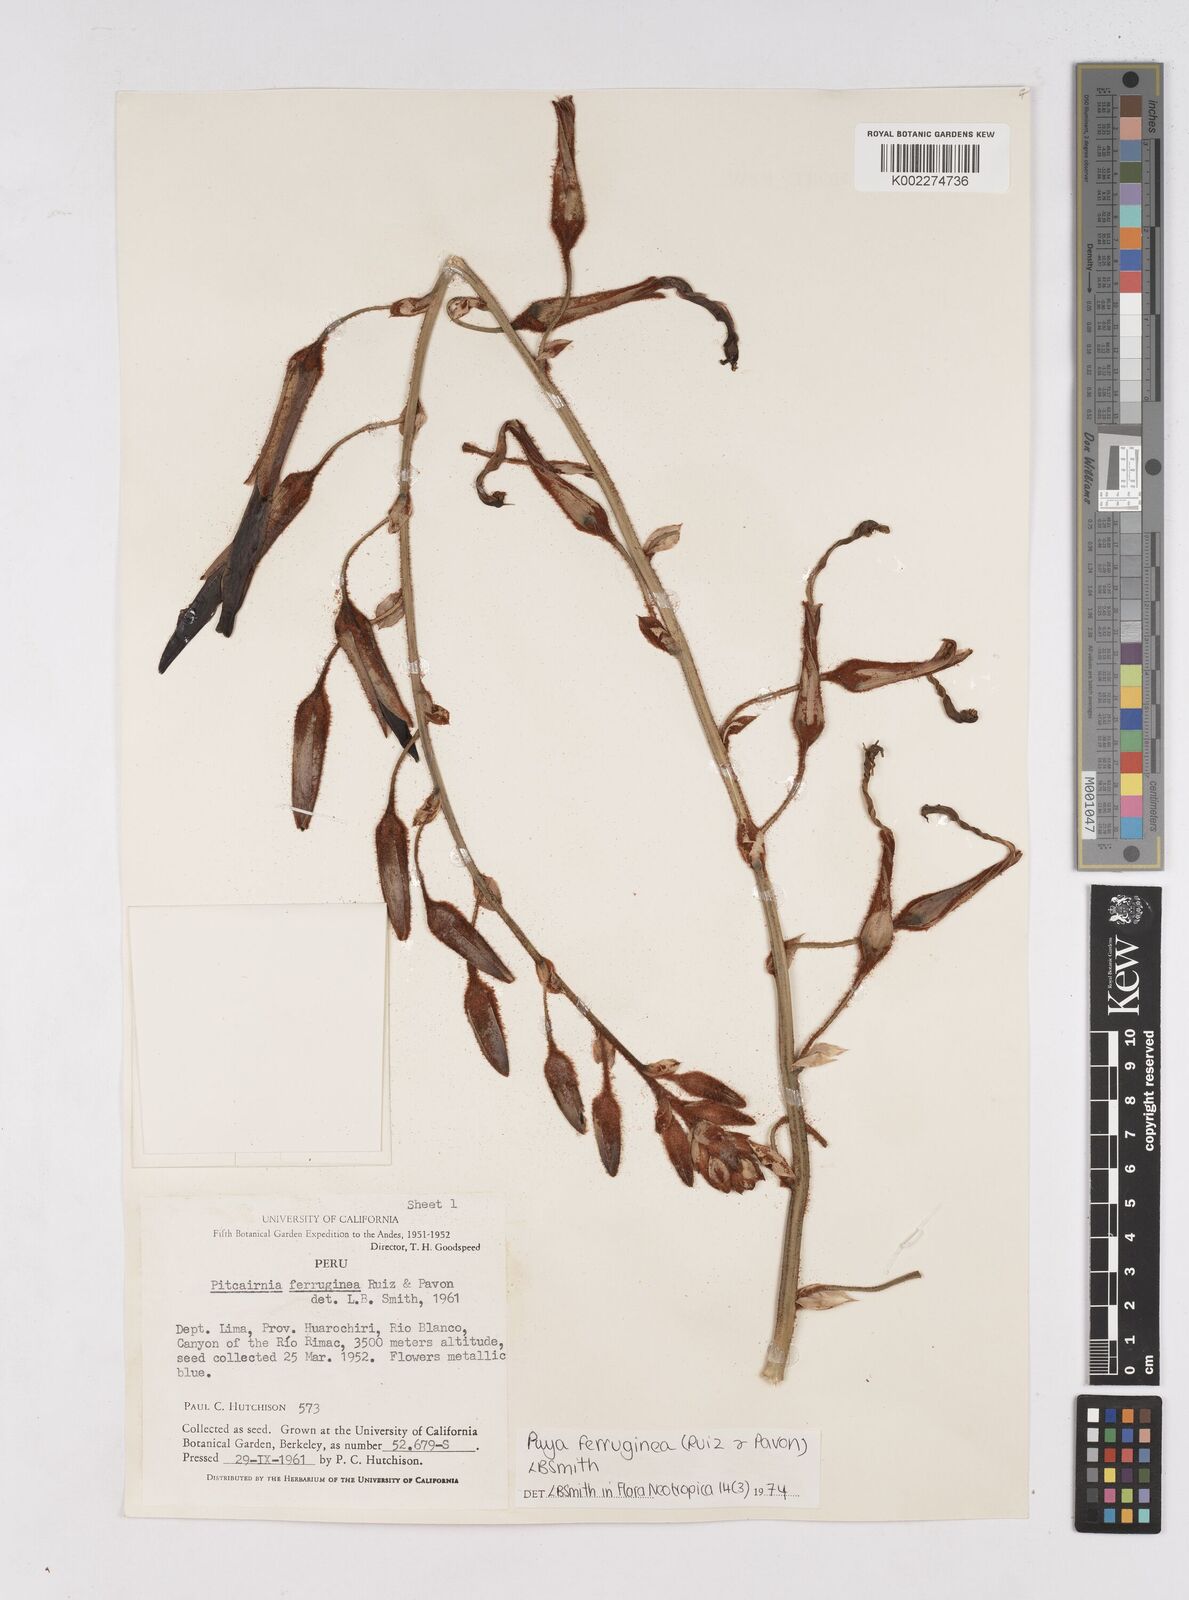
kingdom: Plantae
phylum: Tracheophyta
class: Liliopsida
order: Poales
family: Bromeliaceae
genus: Puya
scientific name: Puya ferruginea
